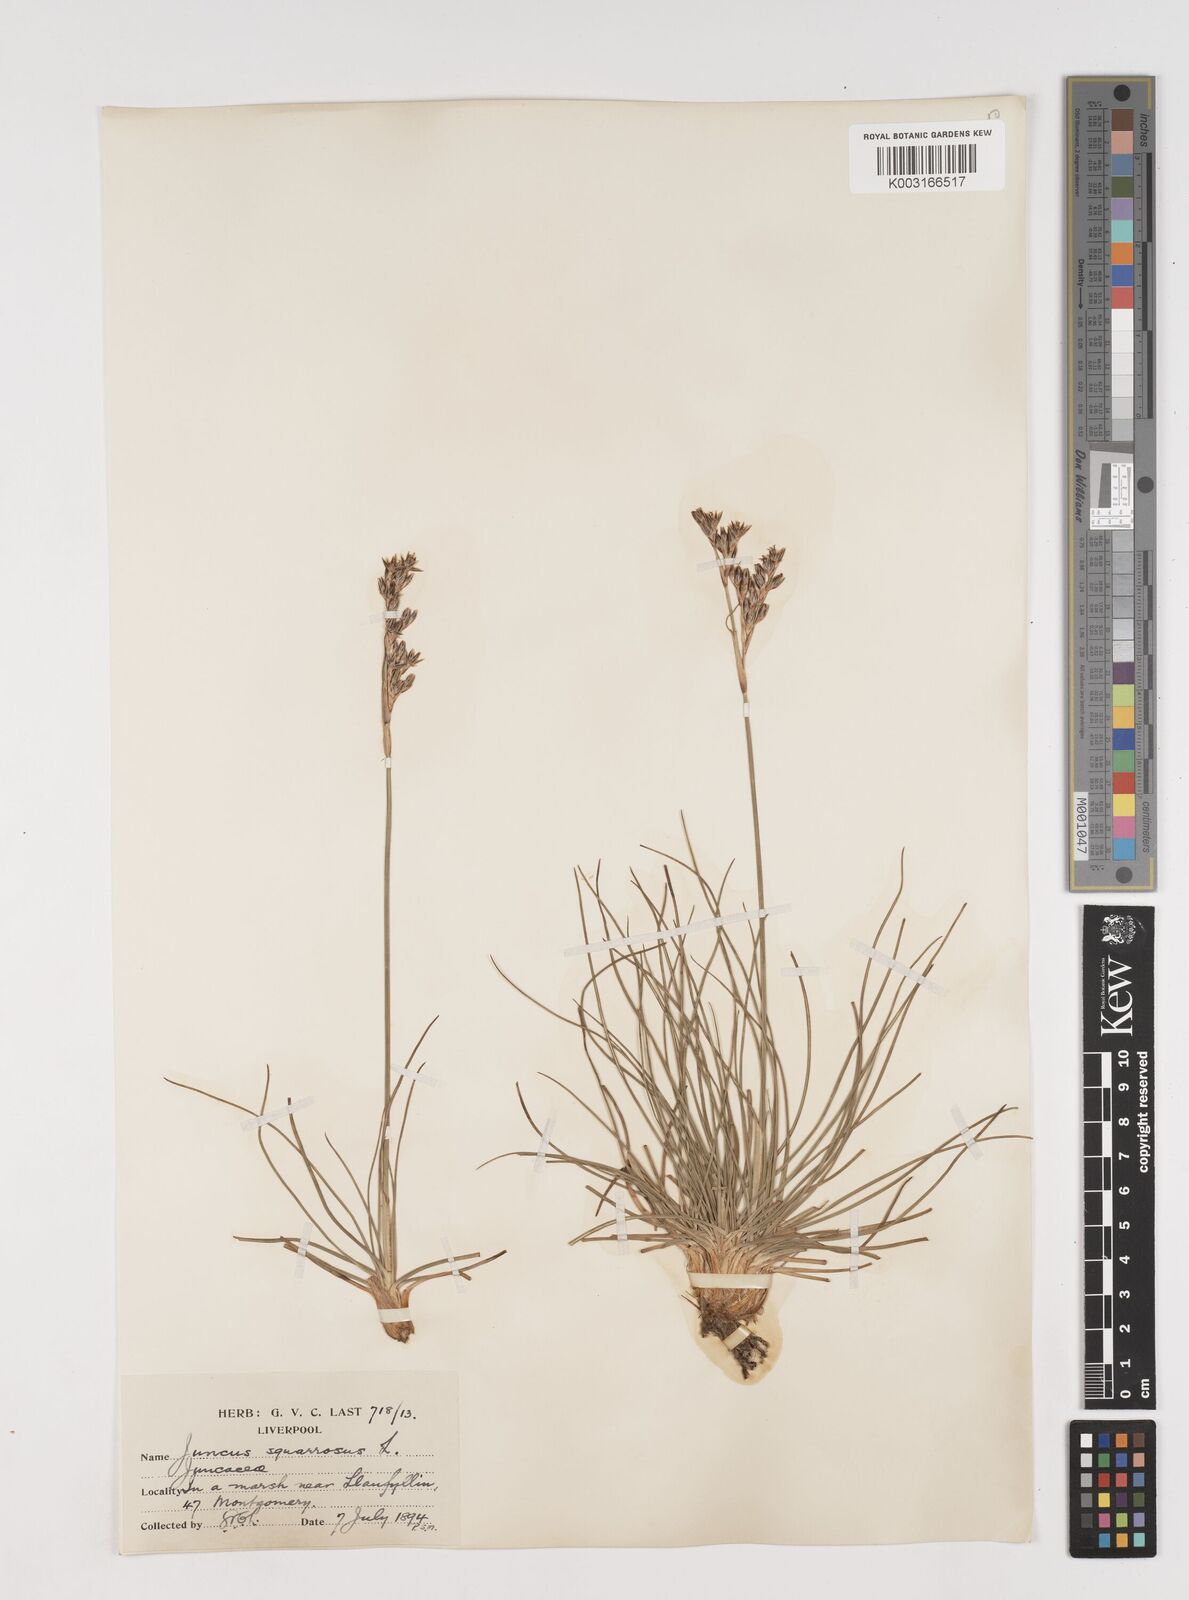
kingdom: Plantae
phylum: Tracheophyta
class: Liliopsida
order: Poales
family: Juncaceae
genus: Juncus
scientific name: Juncus squarrosus
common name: Heath rush
